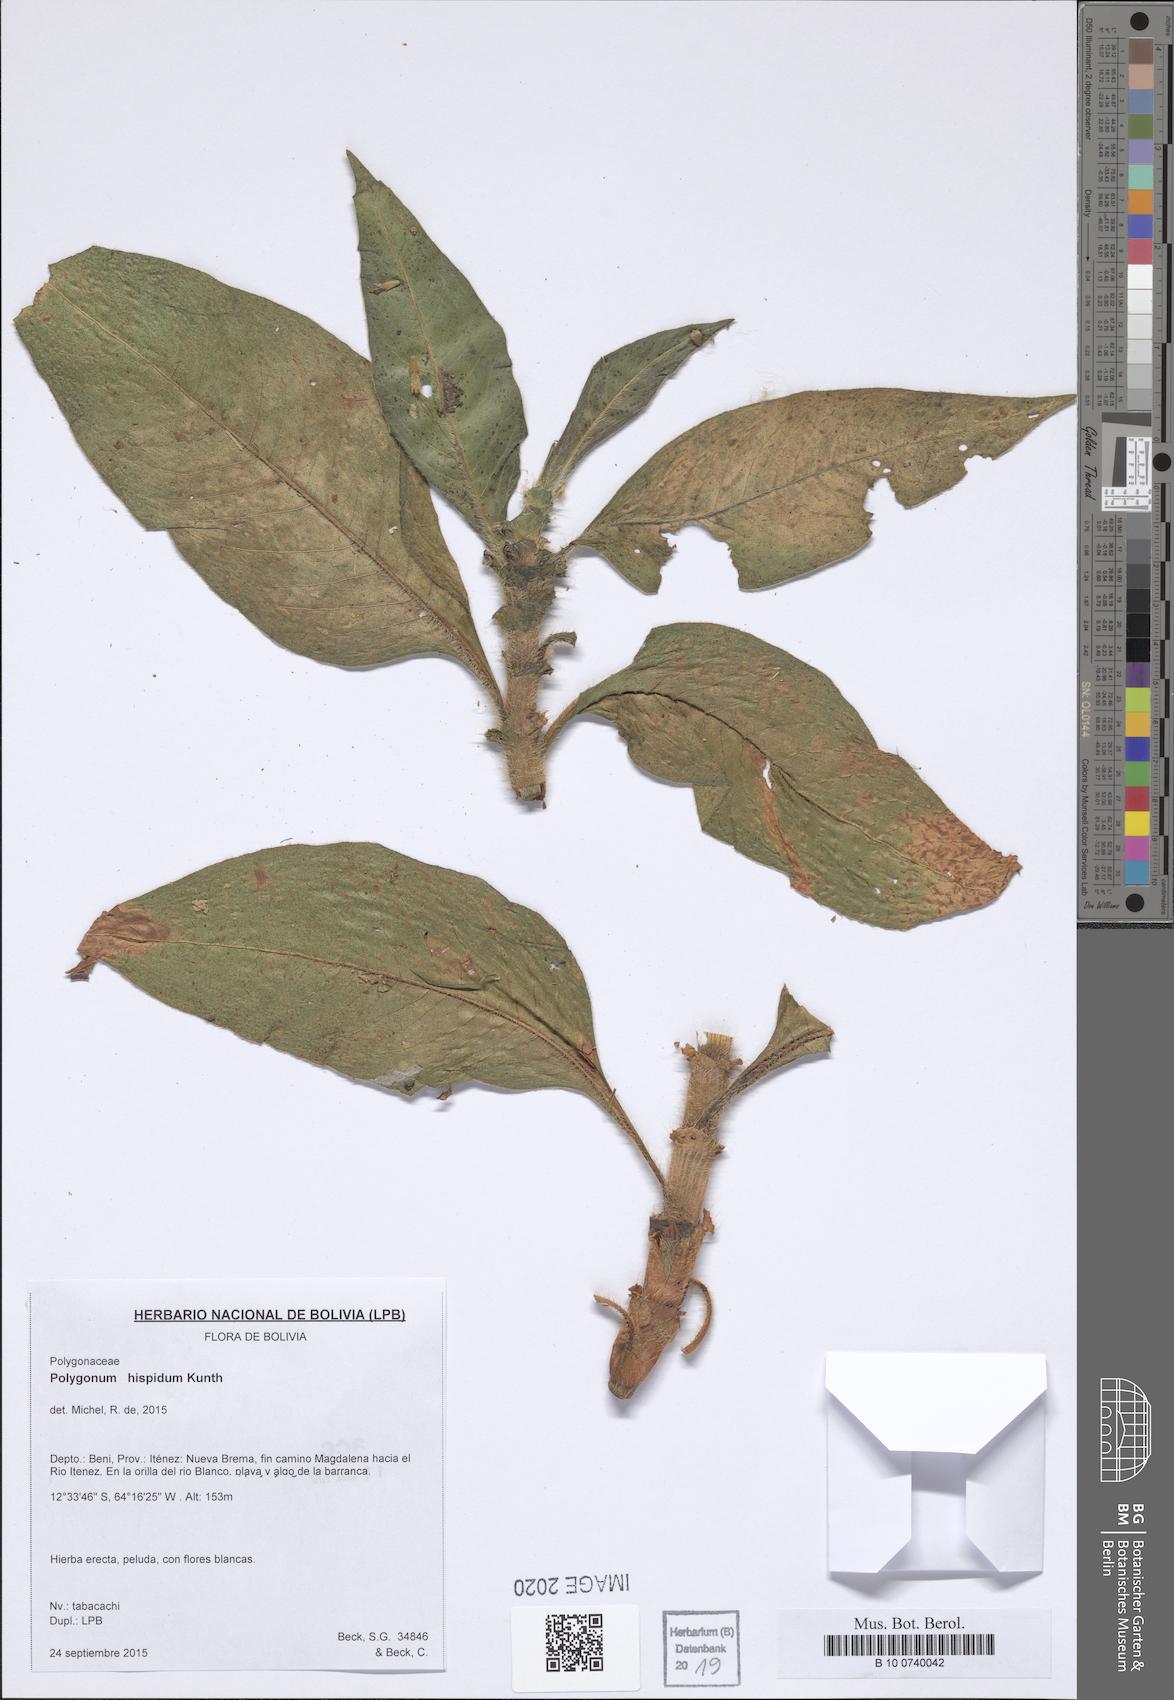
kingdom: Plantae
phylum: Tracheophyta
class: Magnoliopsida
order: Caryophyllales
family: Polygonaceae
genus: Persicaria
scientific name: Persicaria hispida
